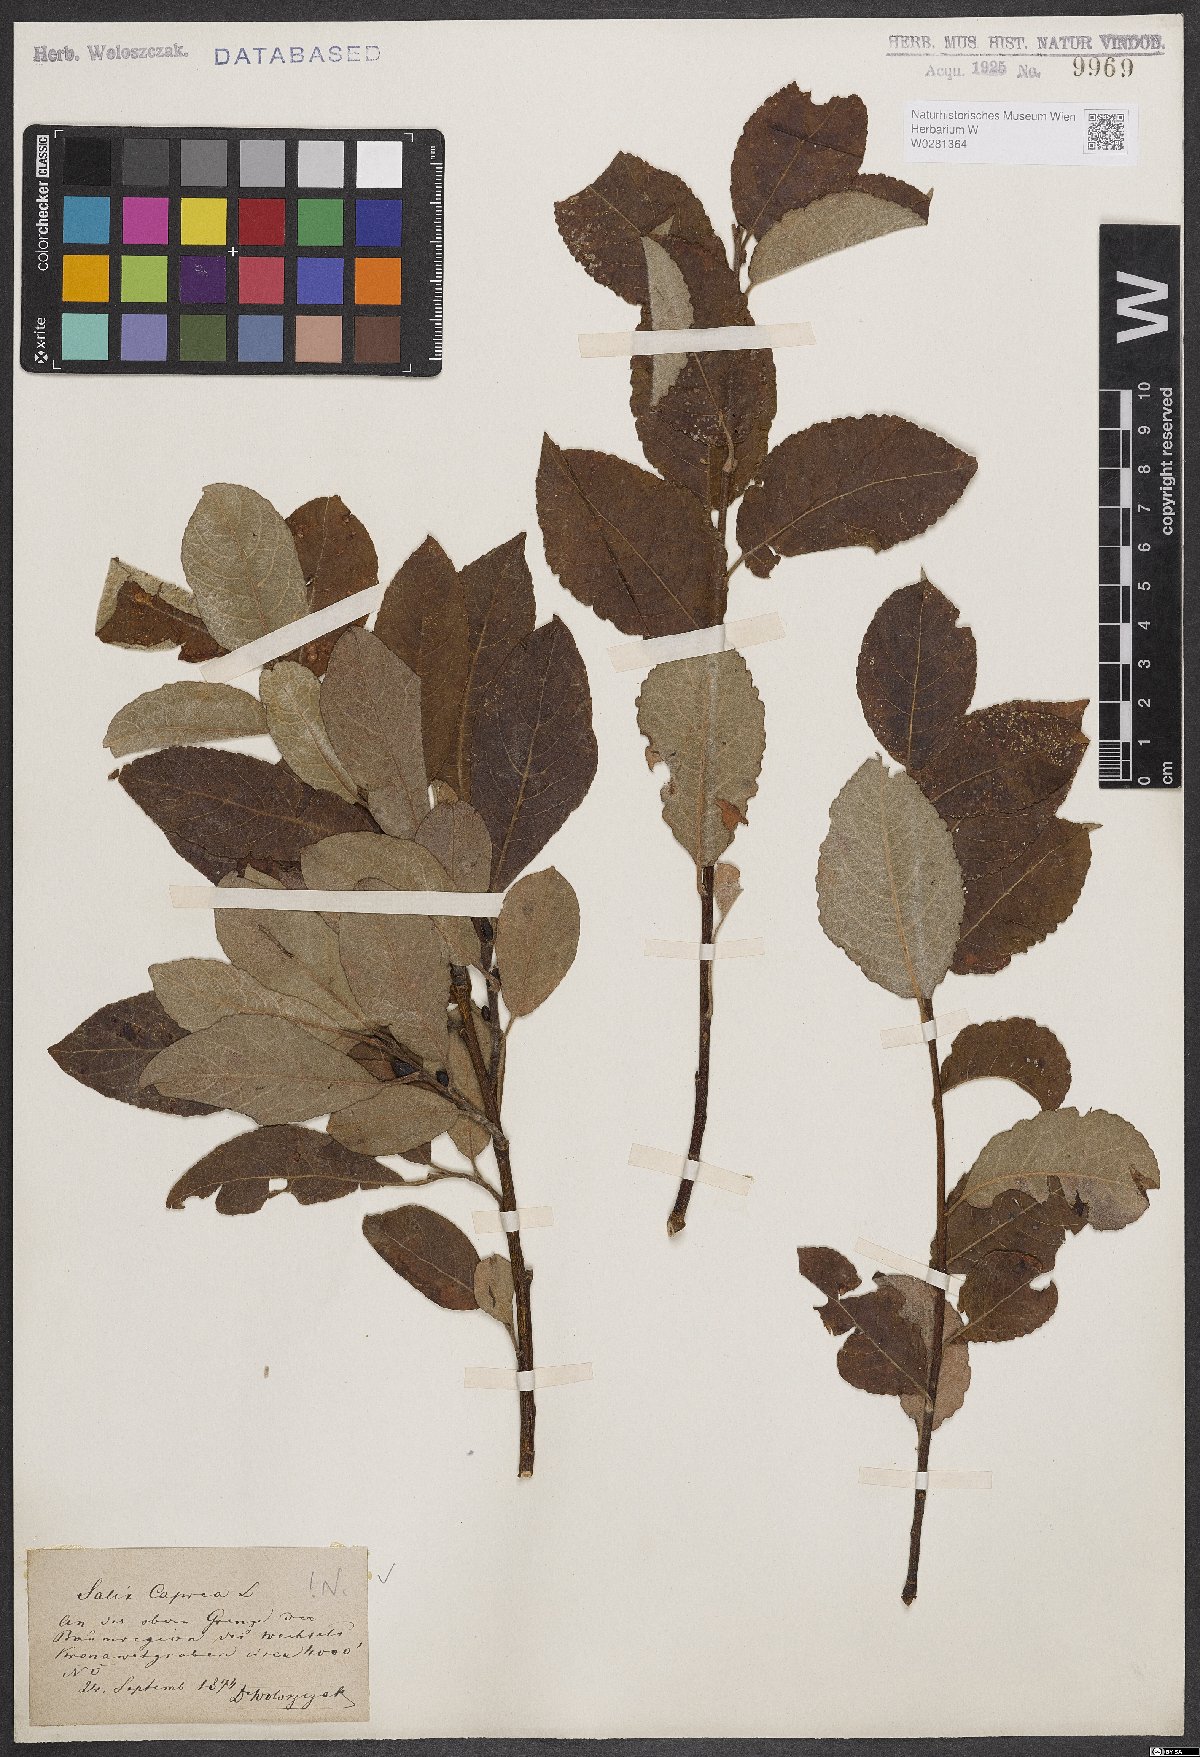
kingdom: Plantae
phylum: Tracheophyta
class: Magnoliopsida
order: Malpighiales
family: Salicaceae
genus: Salix
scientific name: Salix caprea
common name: Goat willow
